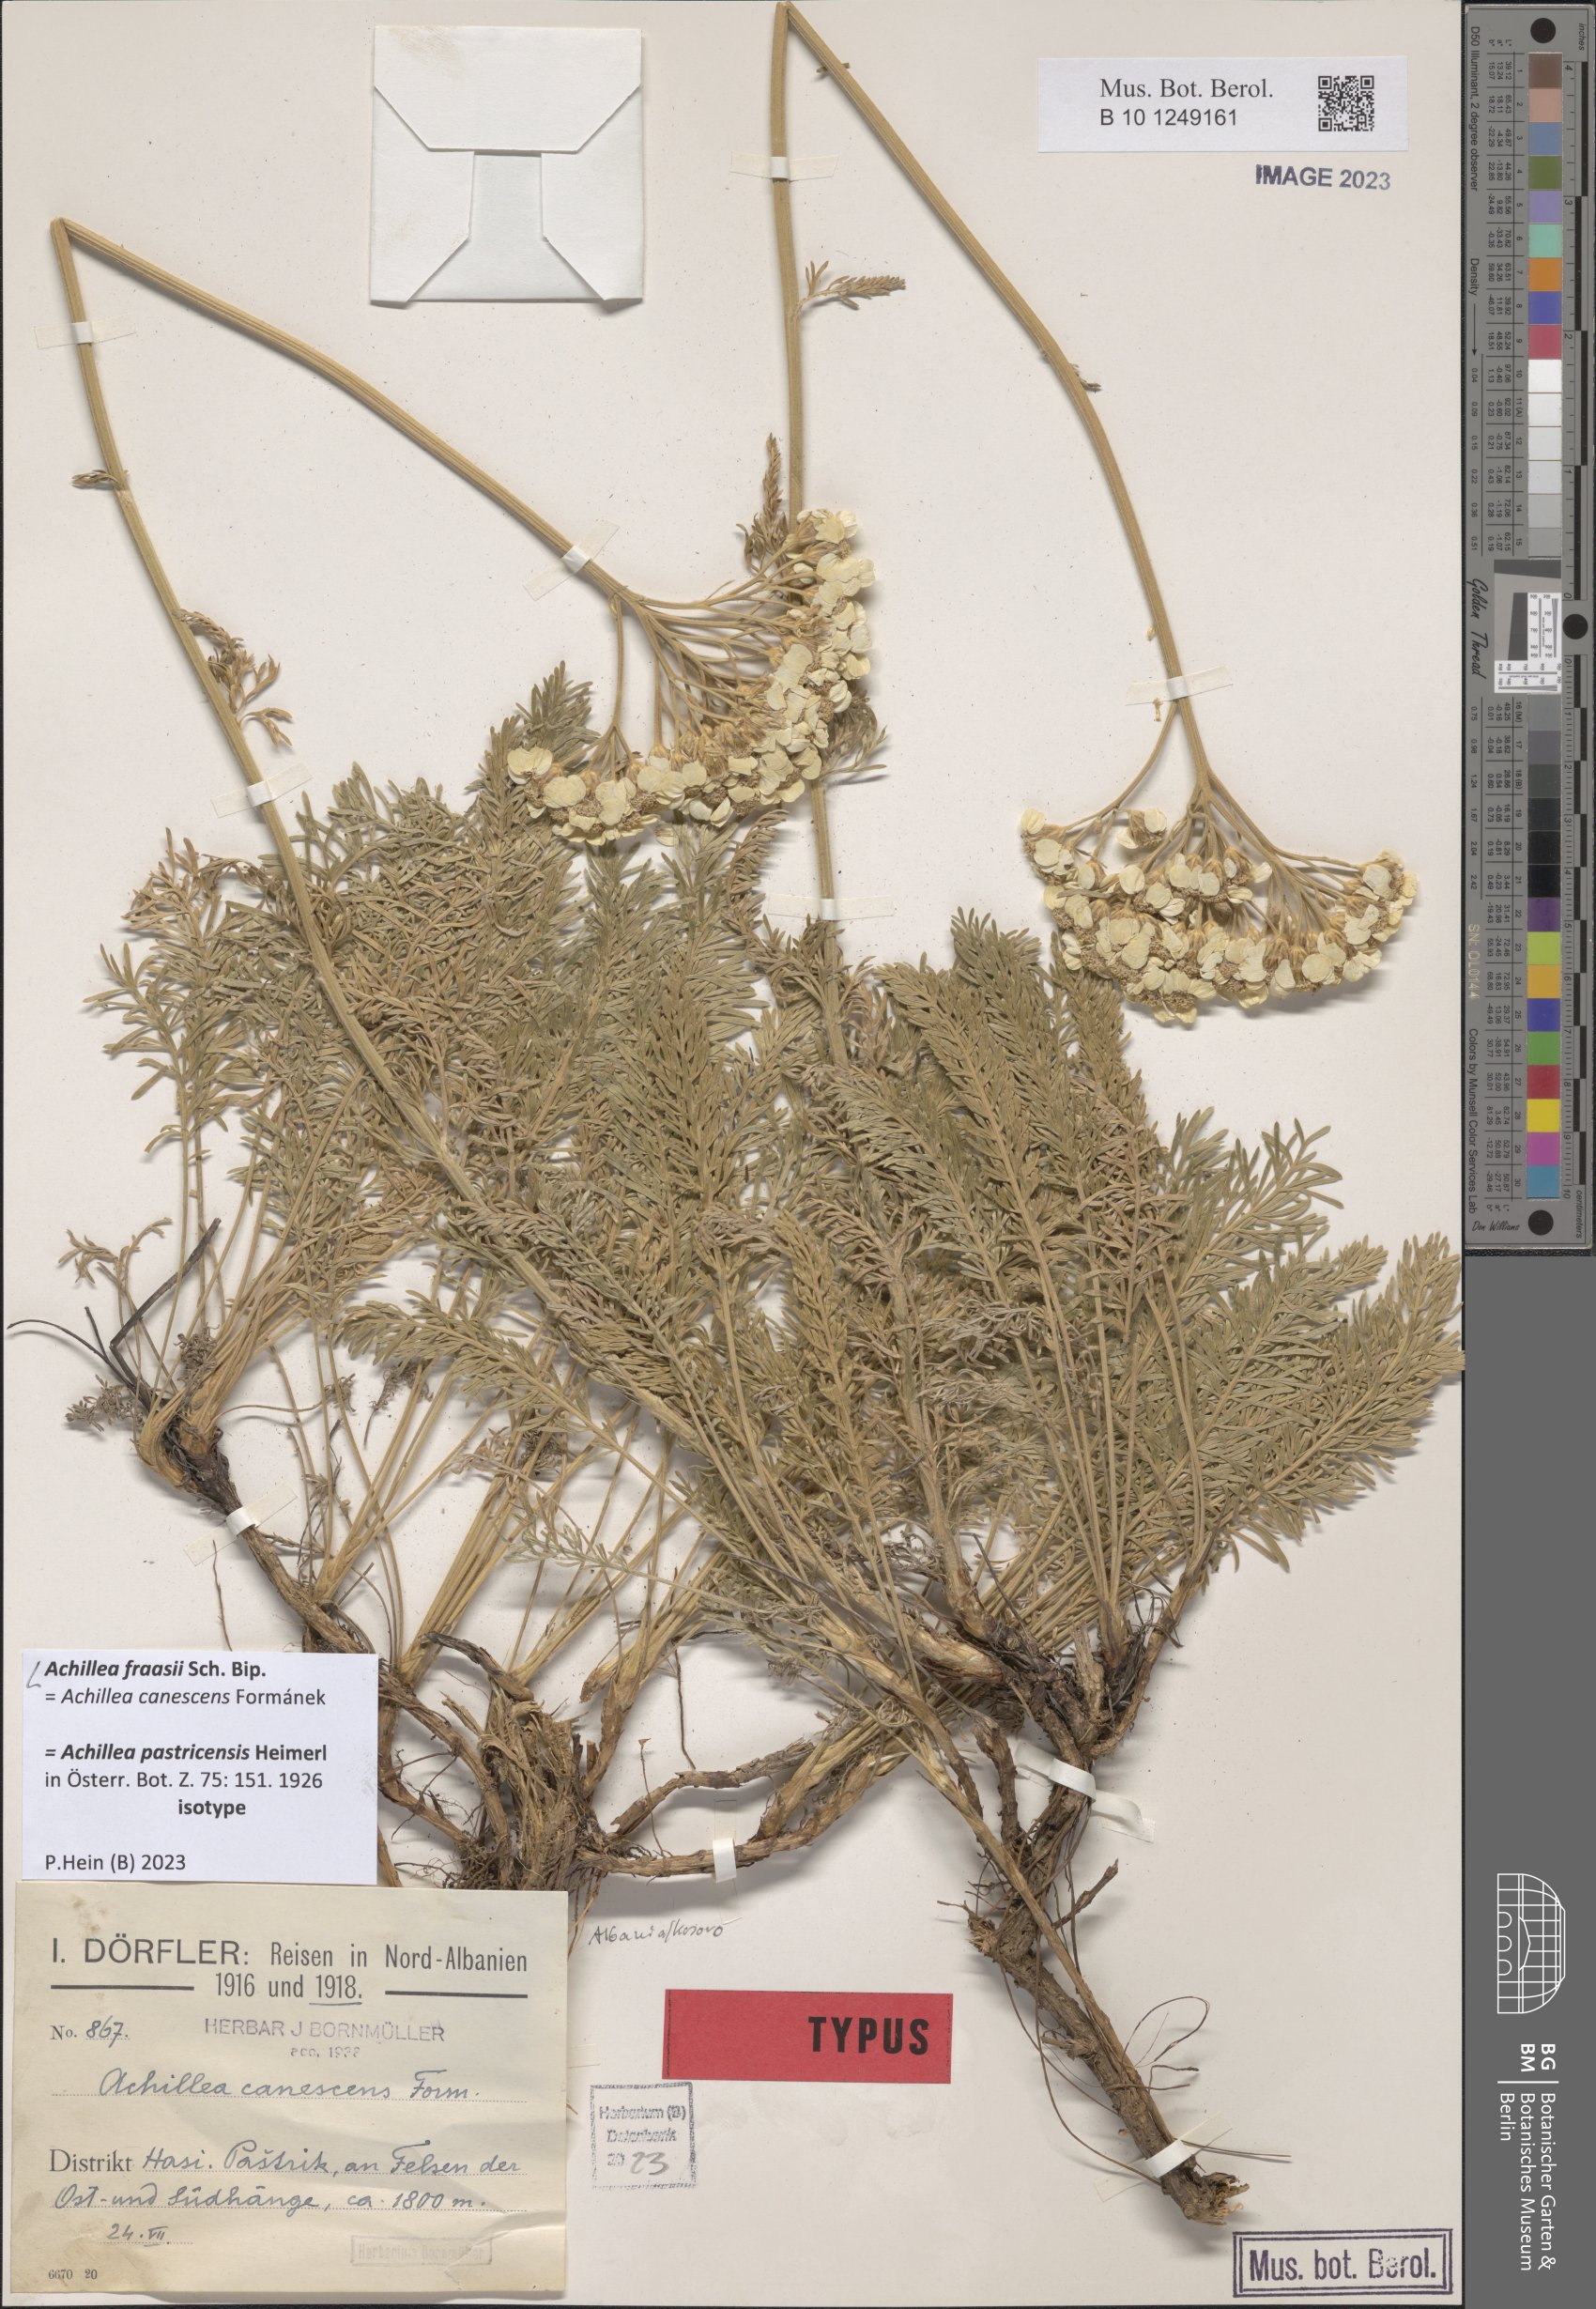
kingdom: Plantae
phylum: Tracheophyta
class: Magnoliopsida
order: Asterales
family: Asteraceae
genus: Achillea
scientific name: Achillea fraasii
